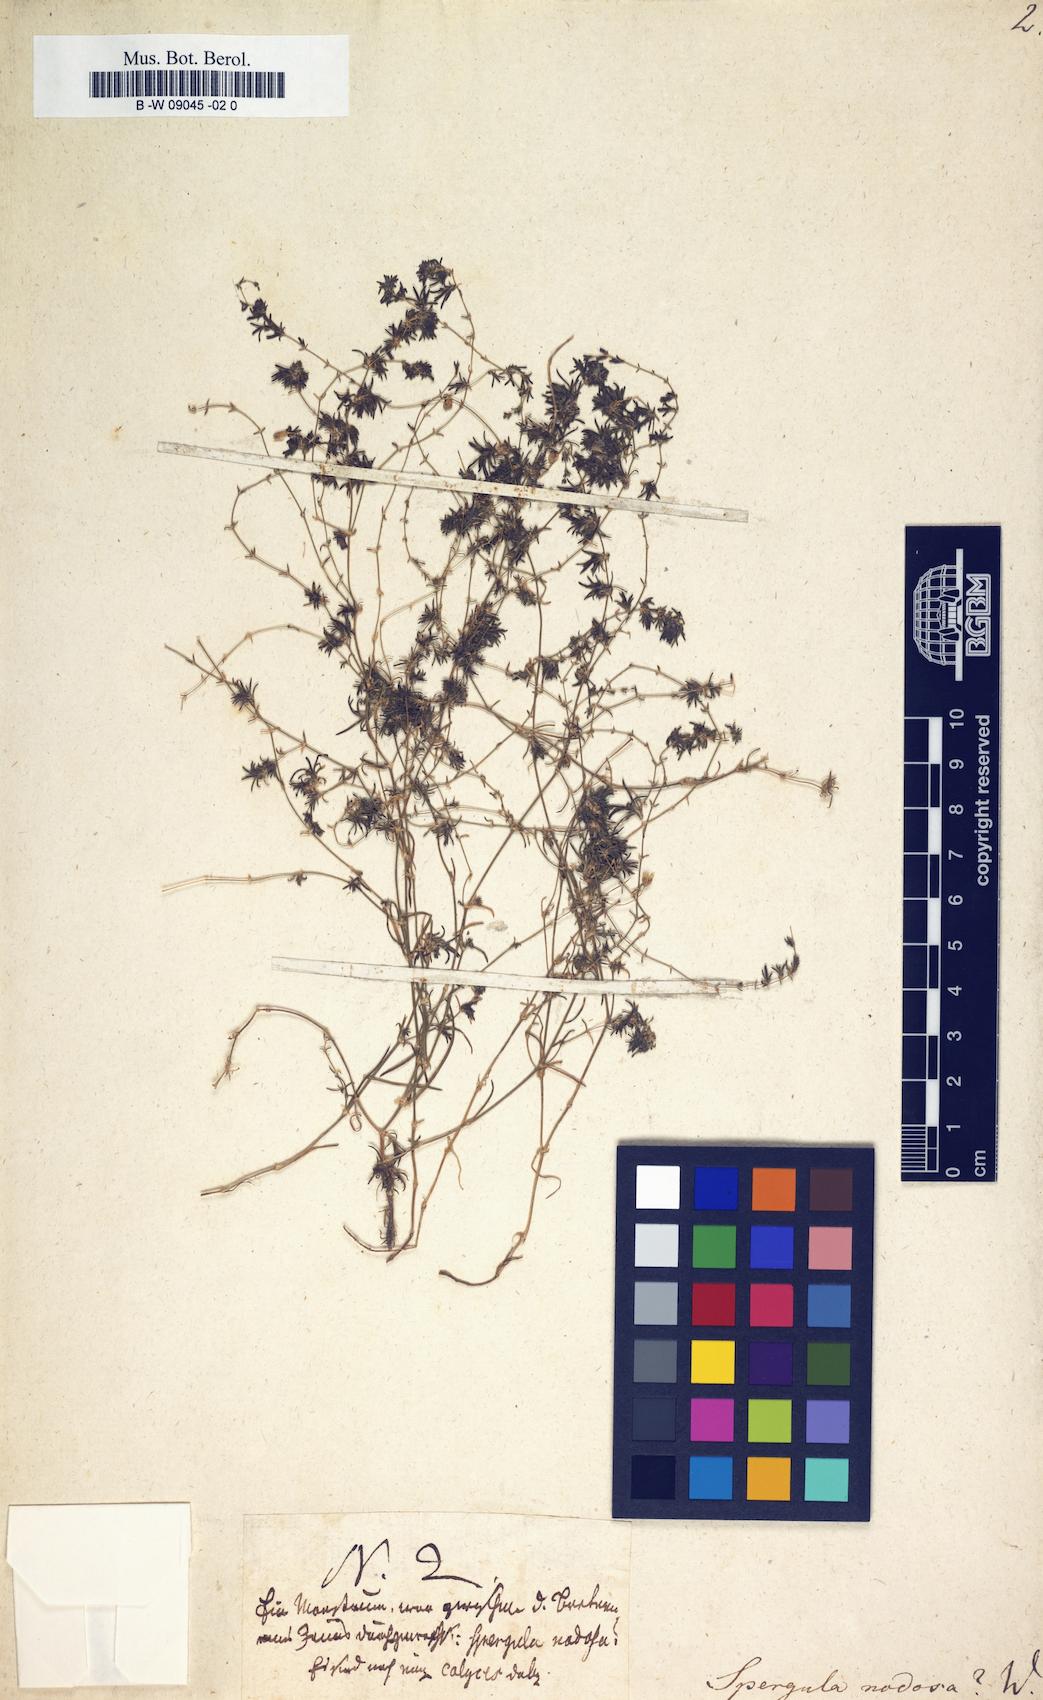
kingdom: Plantae
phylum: Tracheophyta
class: Magnoliopsida
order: Caryophyllales
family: Caryophyllaceae
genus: Sagina
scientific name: Sagina
